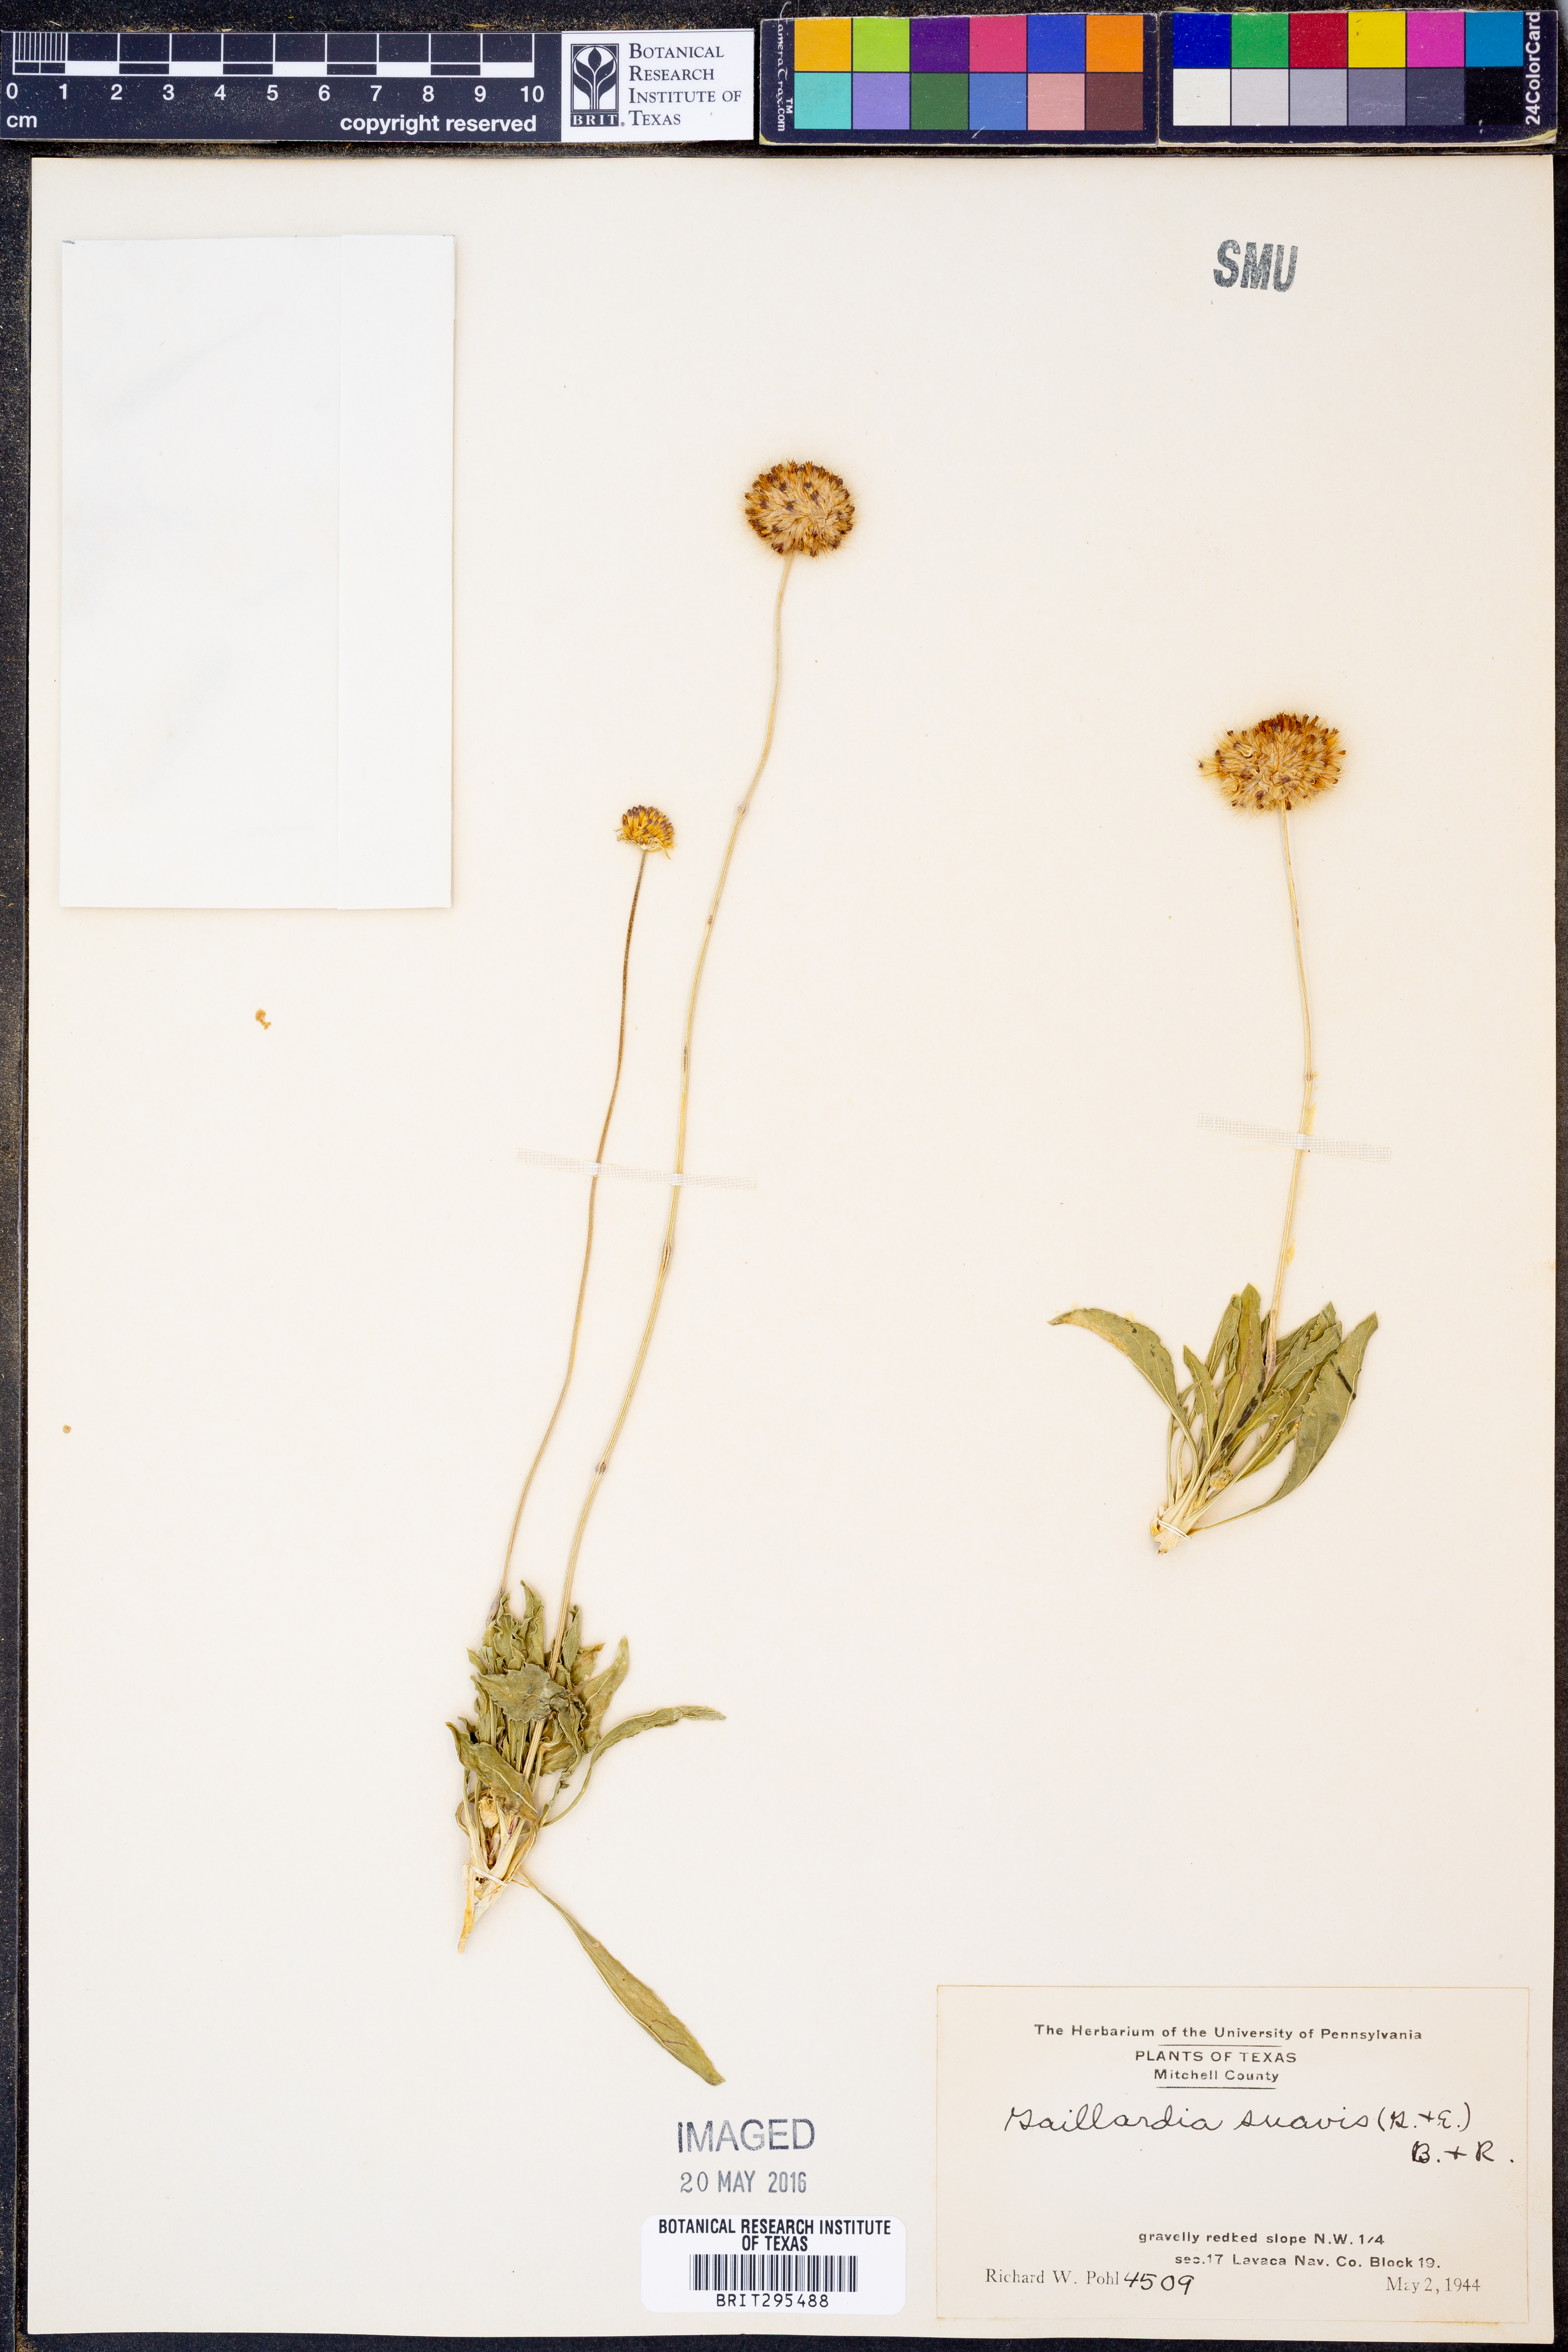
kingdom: Plantae
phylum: Tracheophyta
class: Magnoliopsida
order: Asterales
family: Asteraceae
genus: Gaillardia
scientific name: Gaillardia suavis
